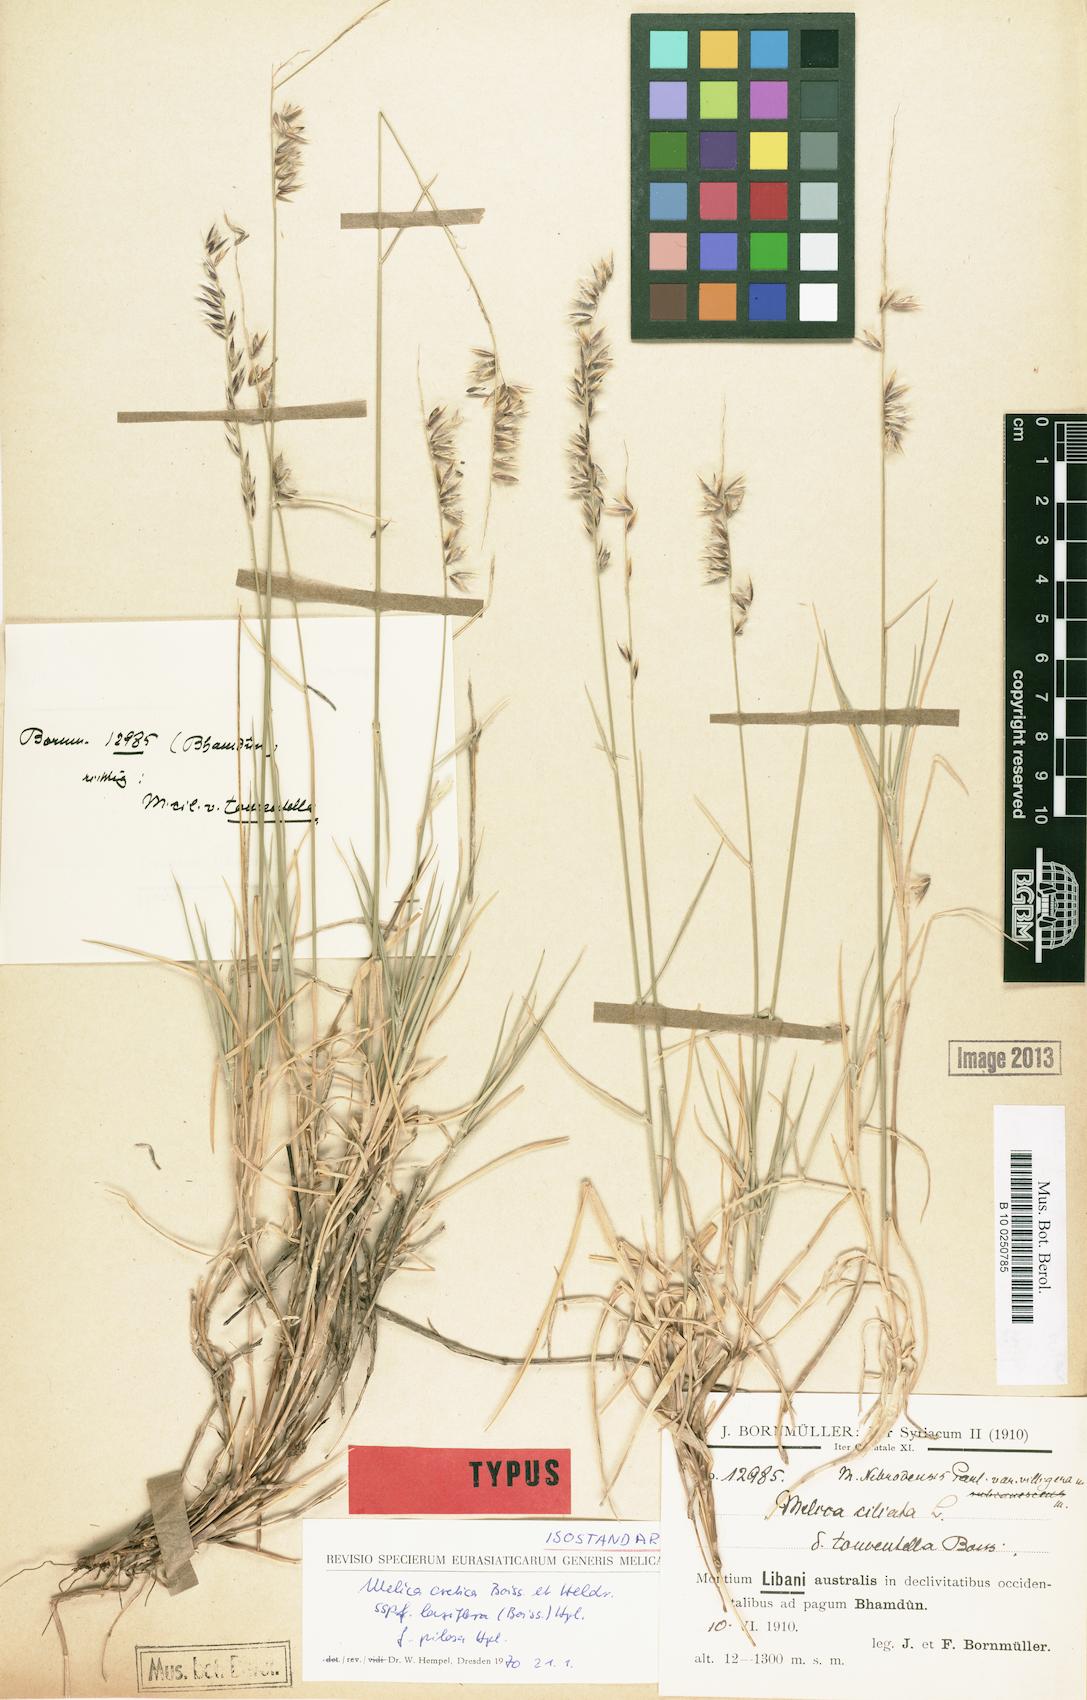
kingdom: Plantae
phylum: Tracheophyta
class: Liliopsida
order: Poales
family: Poaceae
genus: Melica
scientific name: Melica ciliata
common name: Hairy melicgrass
